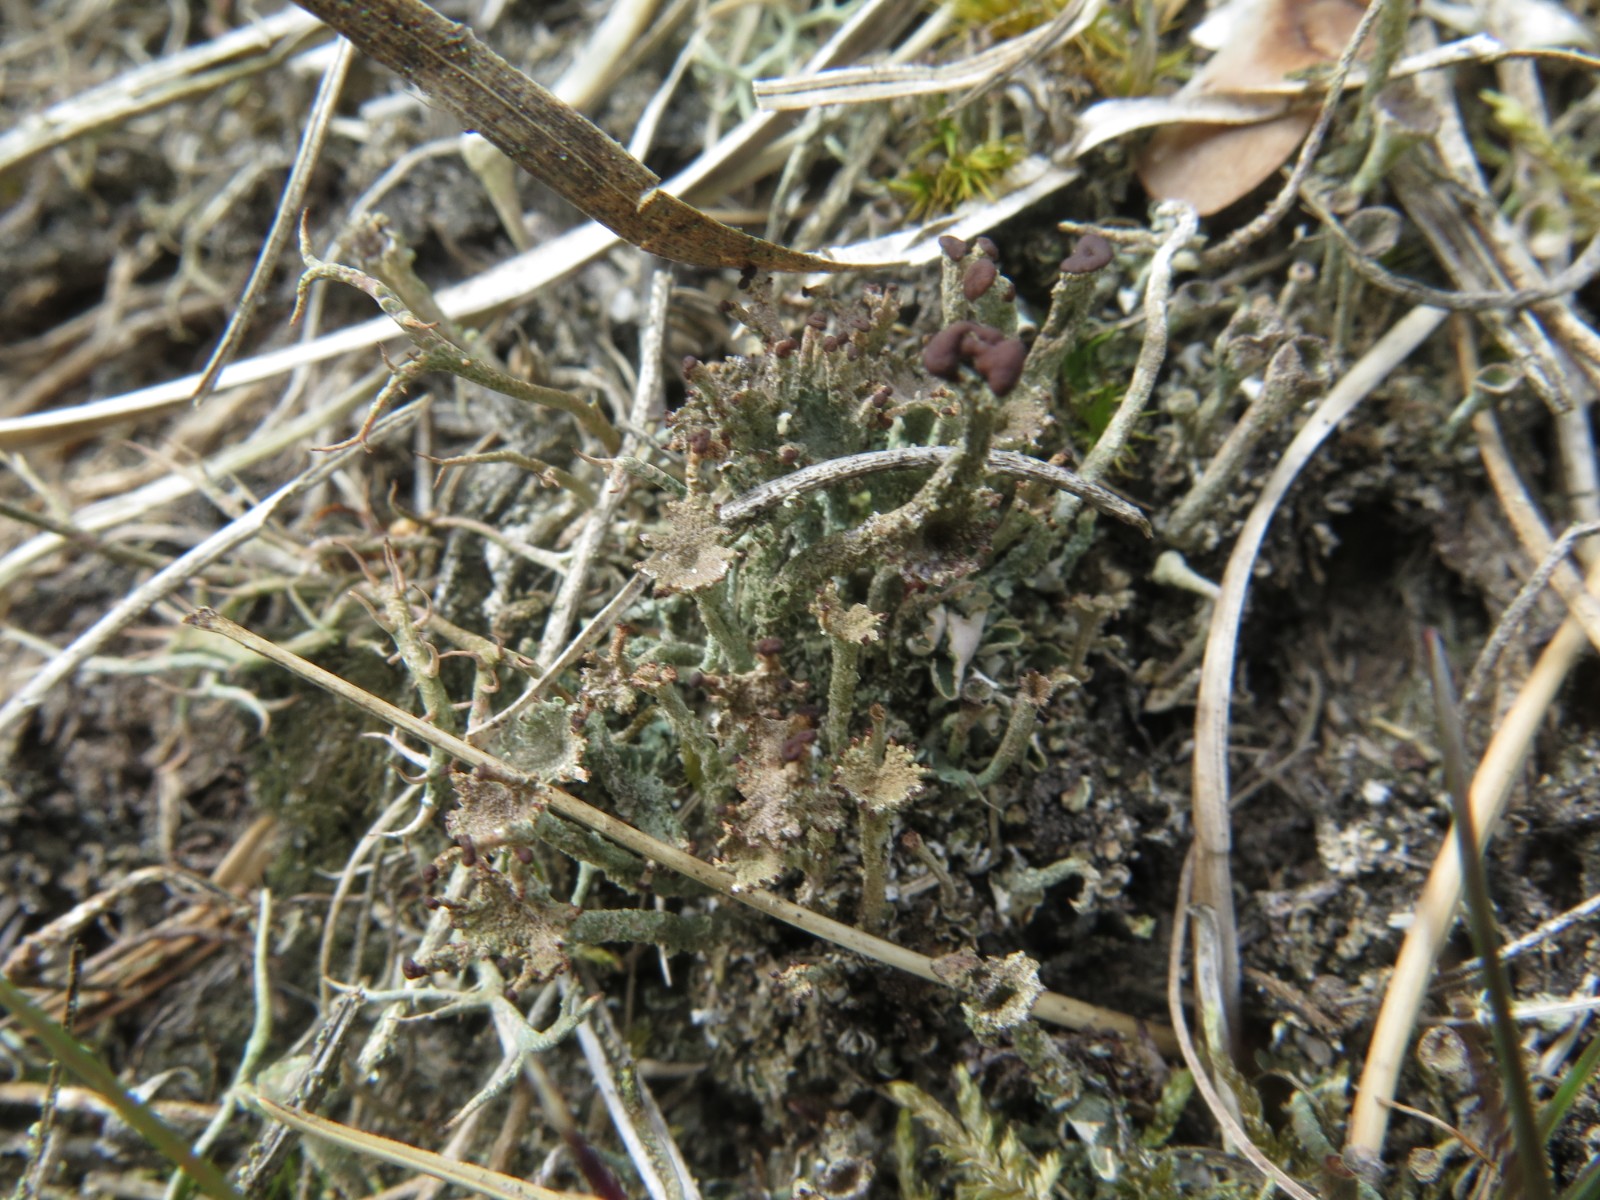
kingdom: Fungi
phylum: Ascomycota
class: Lecanoromycetes
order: Lecanorales
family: Cladoniaceae
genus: Cladonia
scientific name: Cladonia ramulosa
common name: kliddet bægerlav
